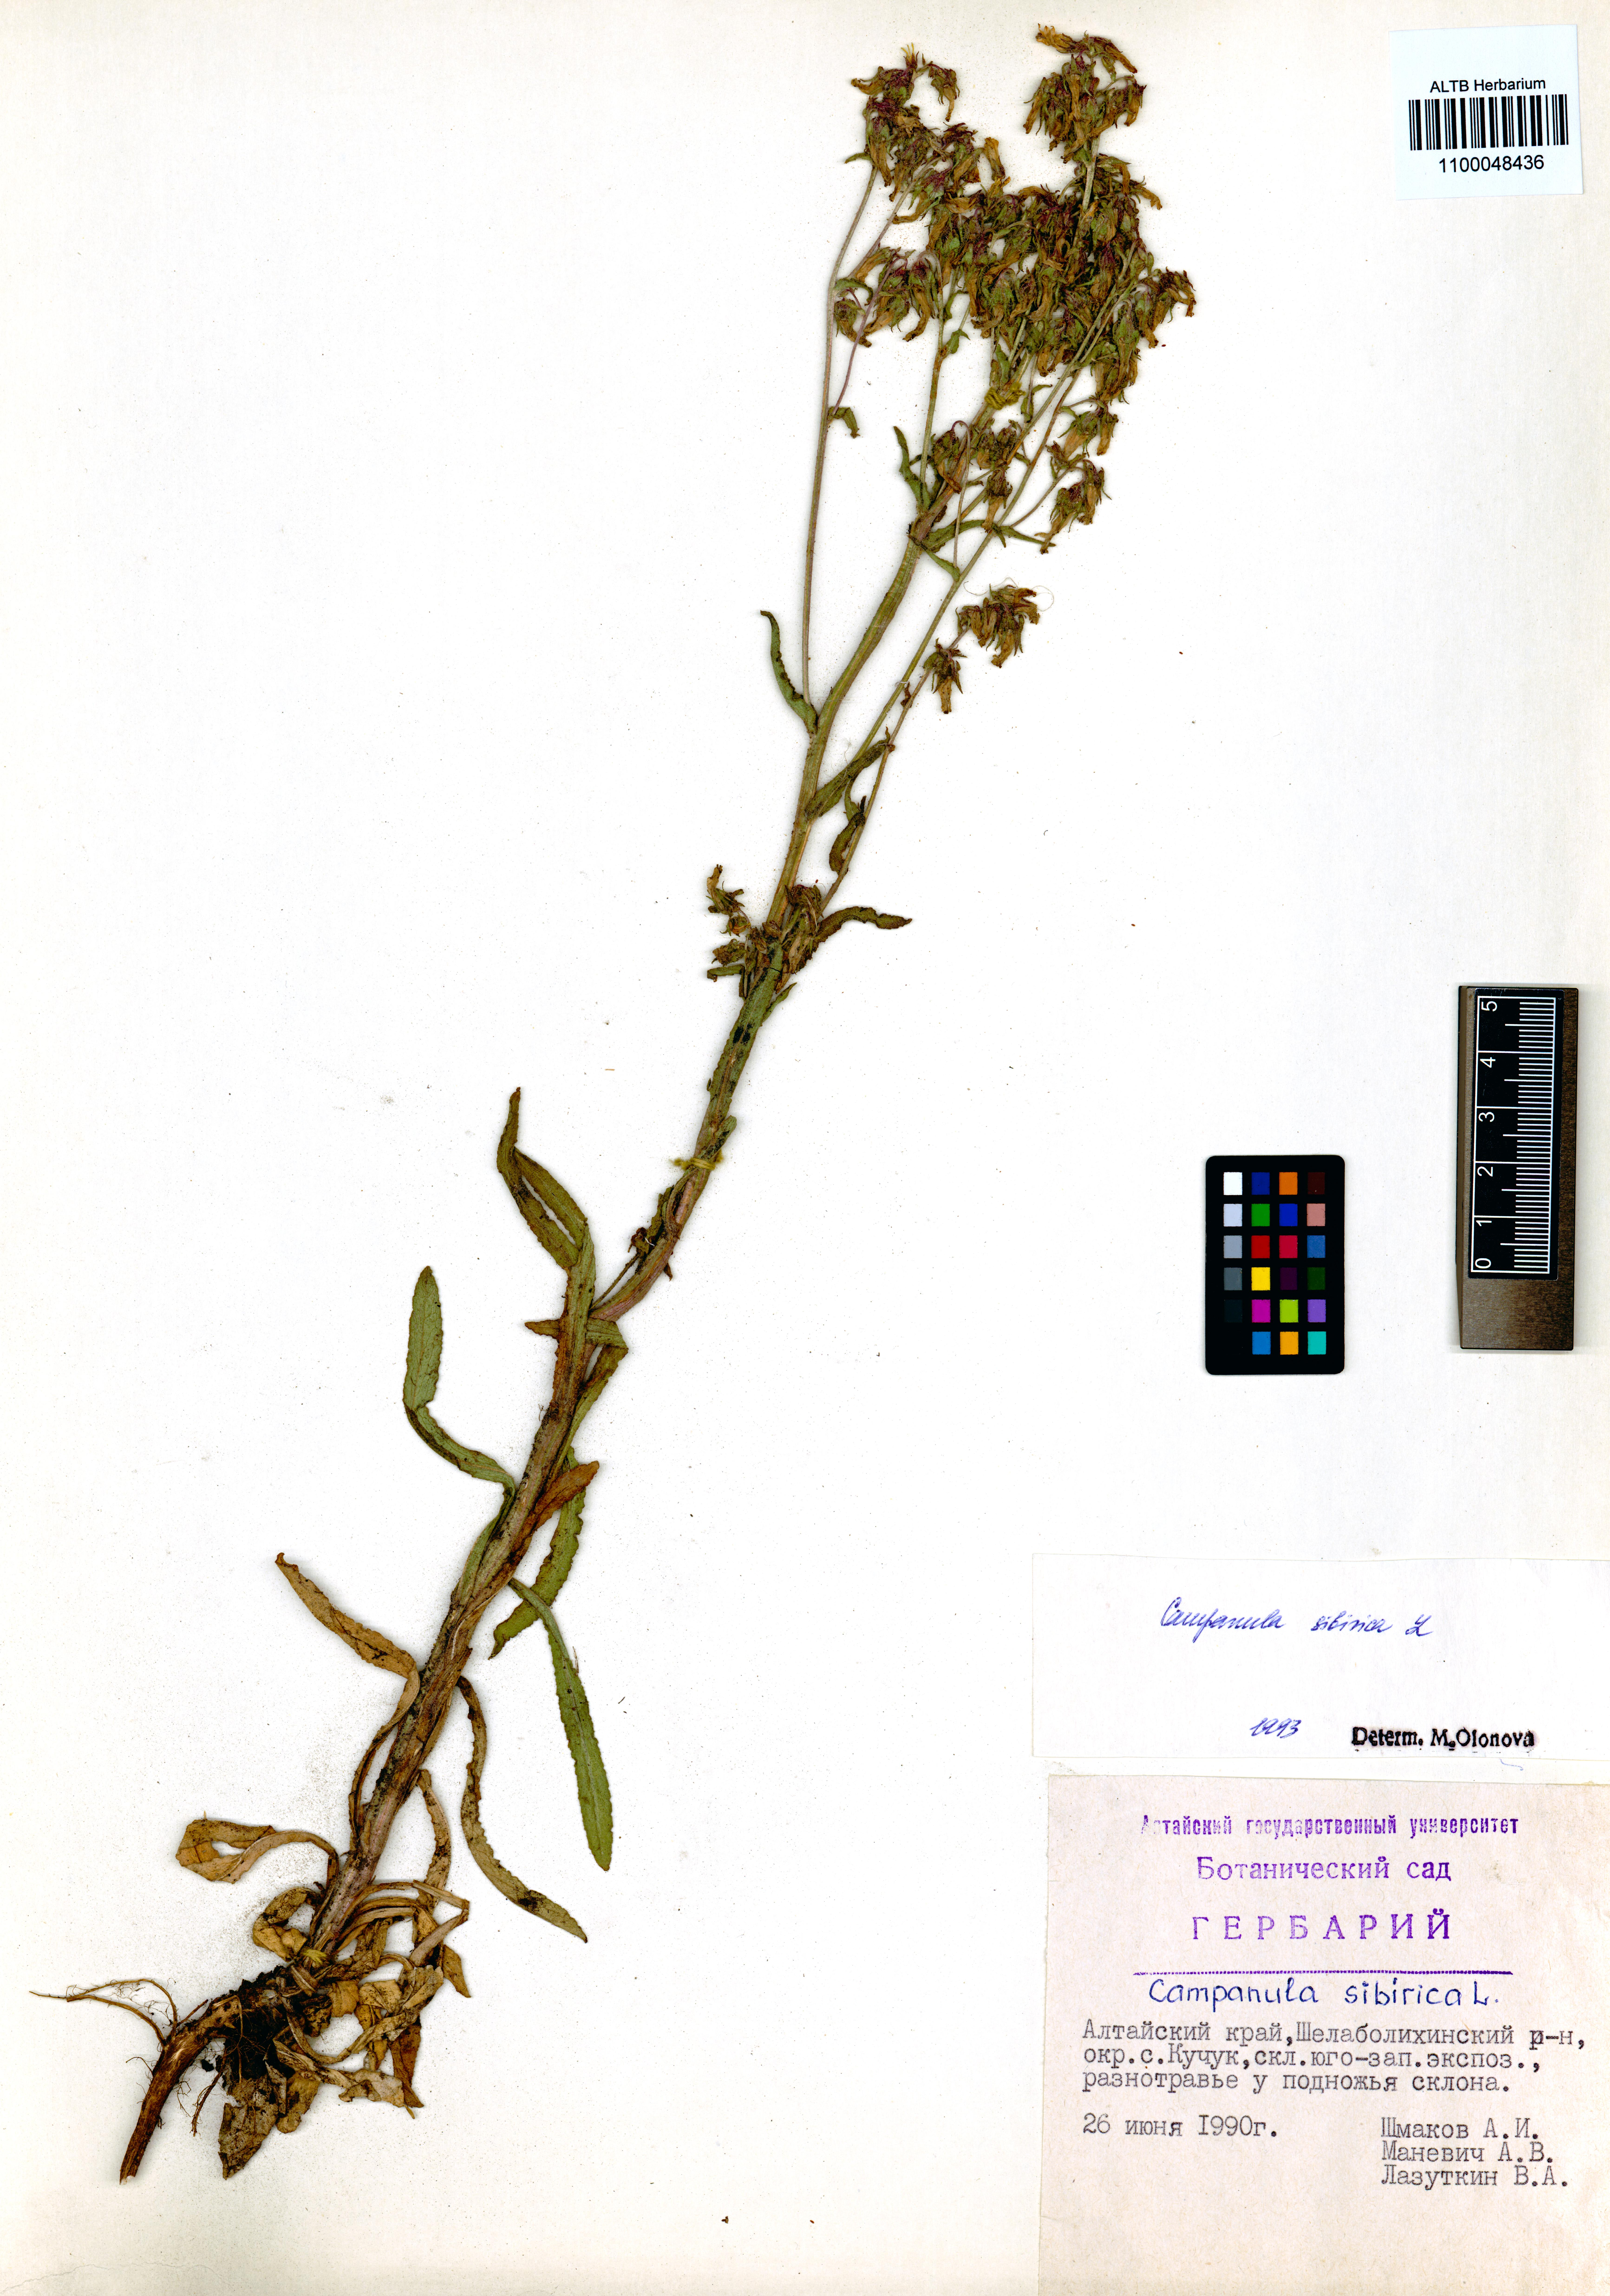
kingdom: Plantae
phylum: Tracheophyta
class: Magnoliopsida
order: Asterales
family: Campanulaceae
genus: Campanula
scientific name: Campanula sibirica
